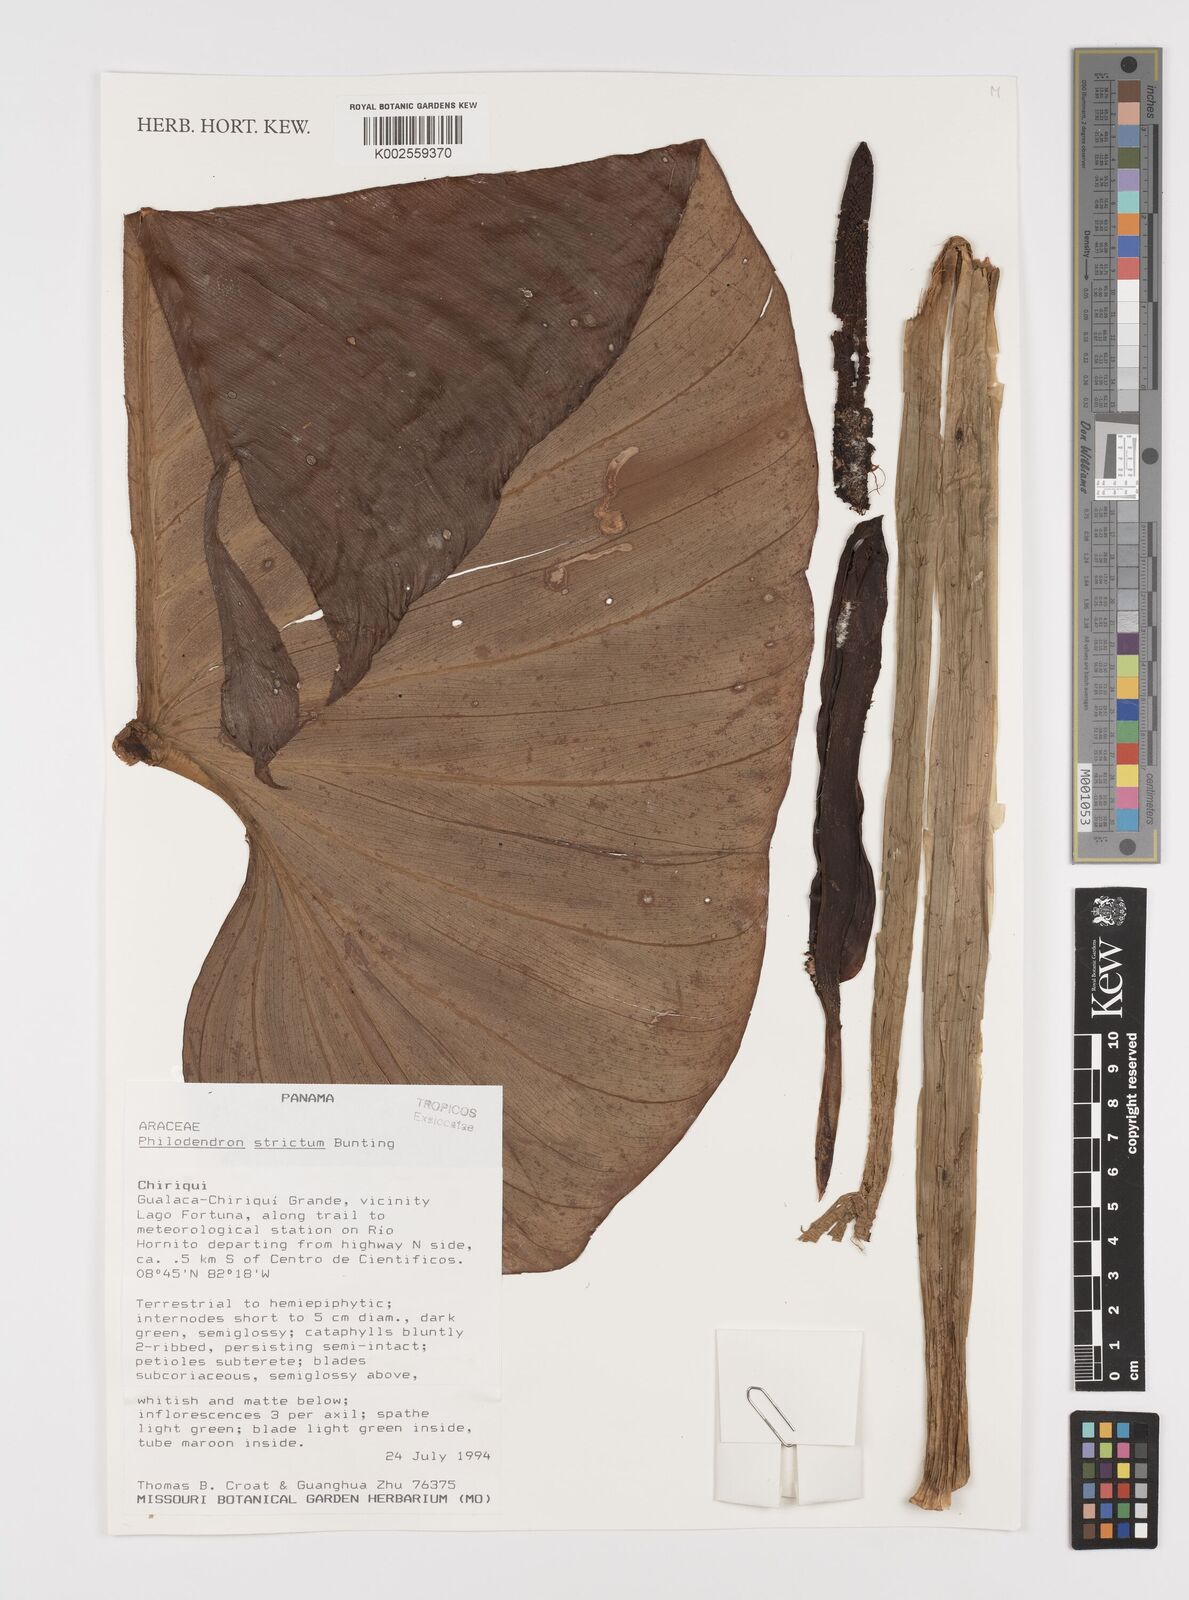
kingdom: Plantae
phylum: Tracheophyta
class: Liliopsida
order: Alismatales
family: Araceae
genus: Philodendron
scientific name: Philodendron strictum
